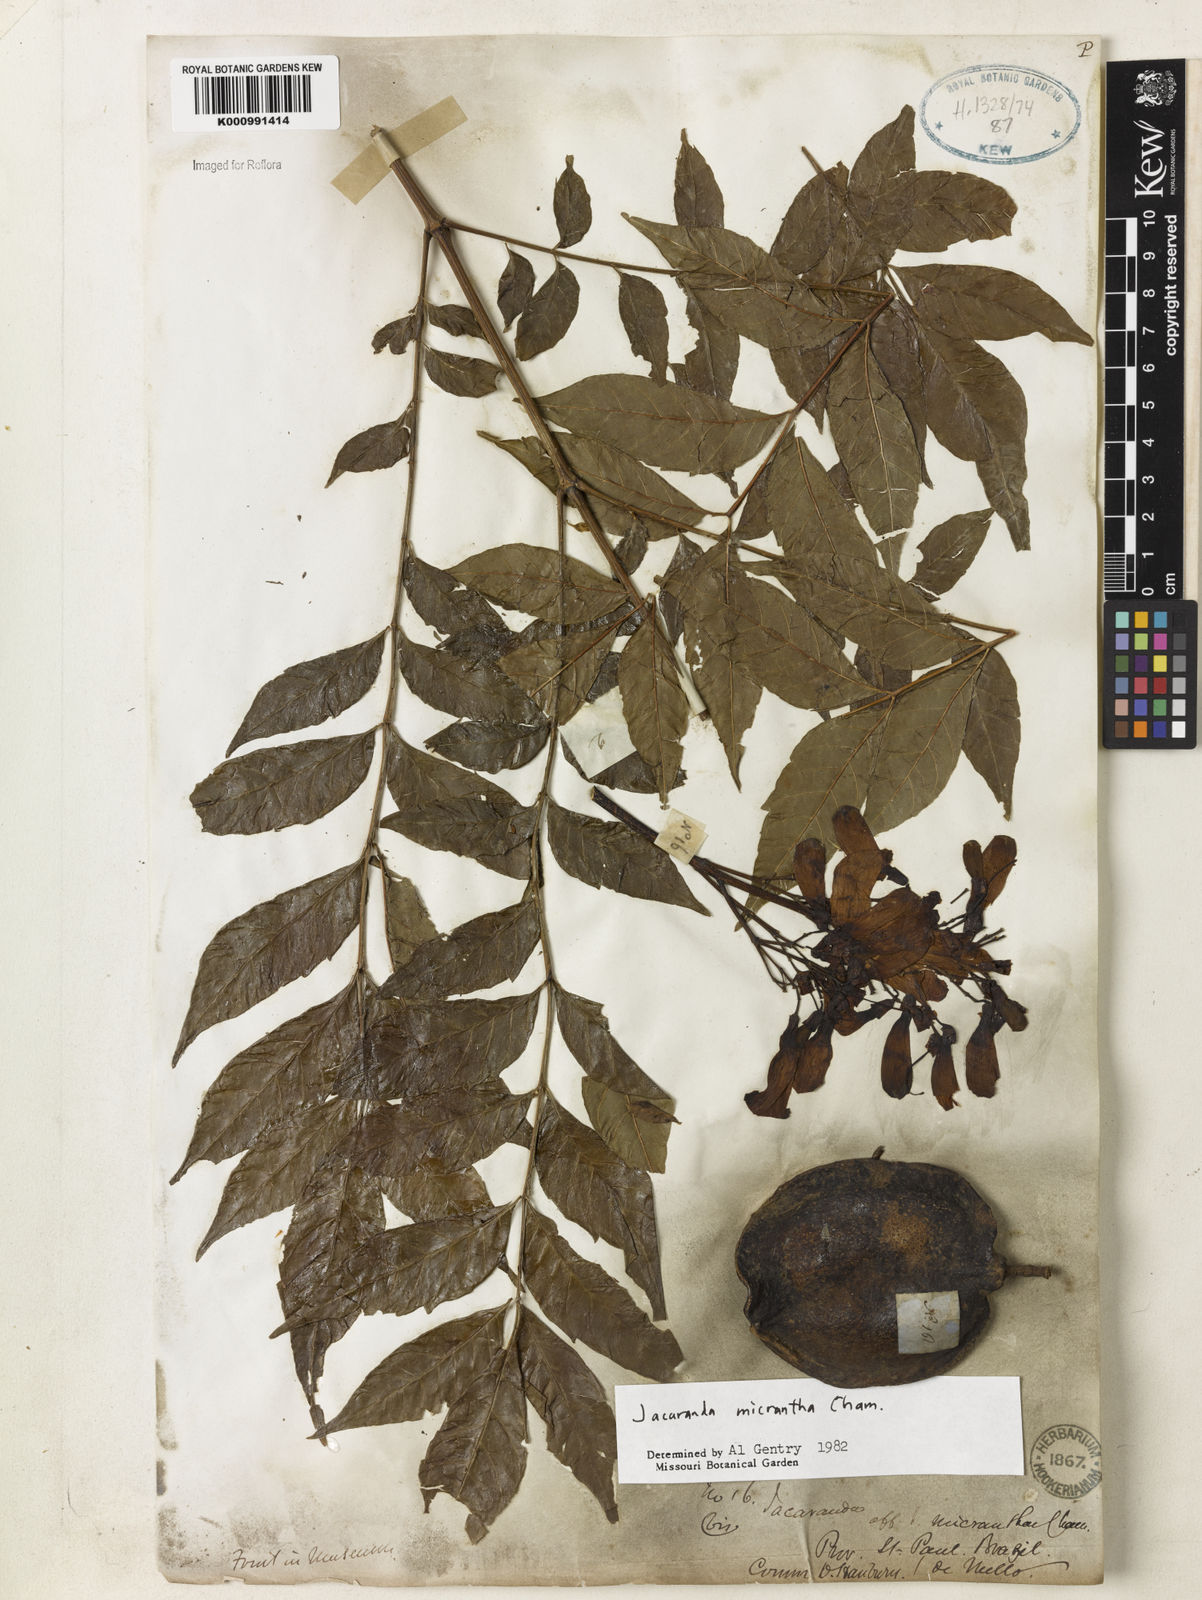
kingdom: Plantae
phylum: Tracheophyta
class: Magnoliopsida
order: Lamiales
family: Bignoniaceae
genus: Jacaranda
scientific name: Jacaranda micrantha
